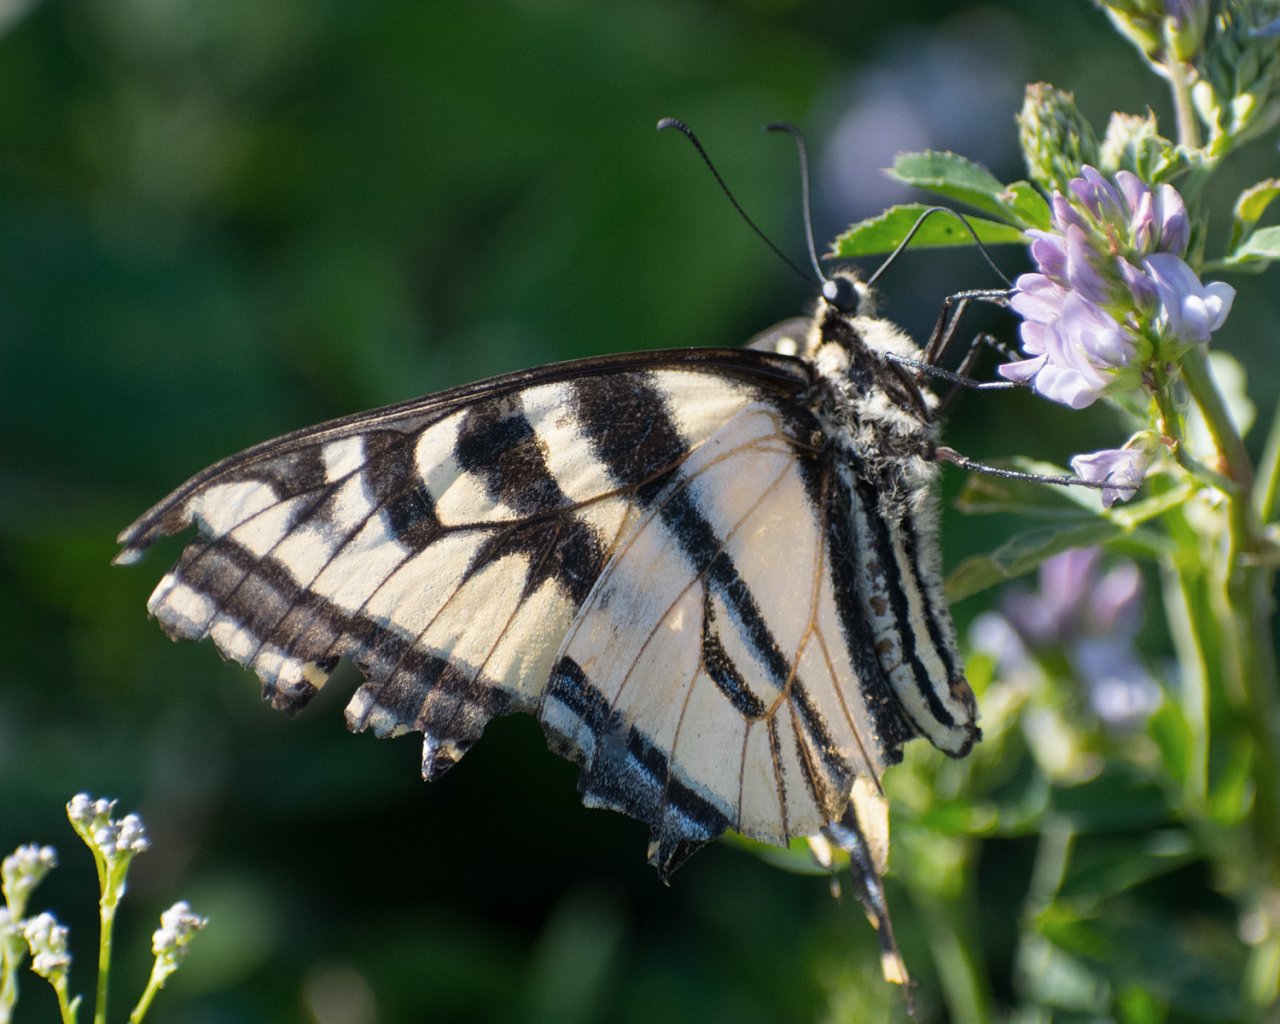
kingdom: Animalia
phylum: Arthropoda
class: Insecta
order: Lepidoptera
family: Papilionidae
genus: Papilio
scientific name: Papilio
